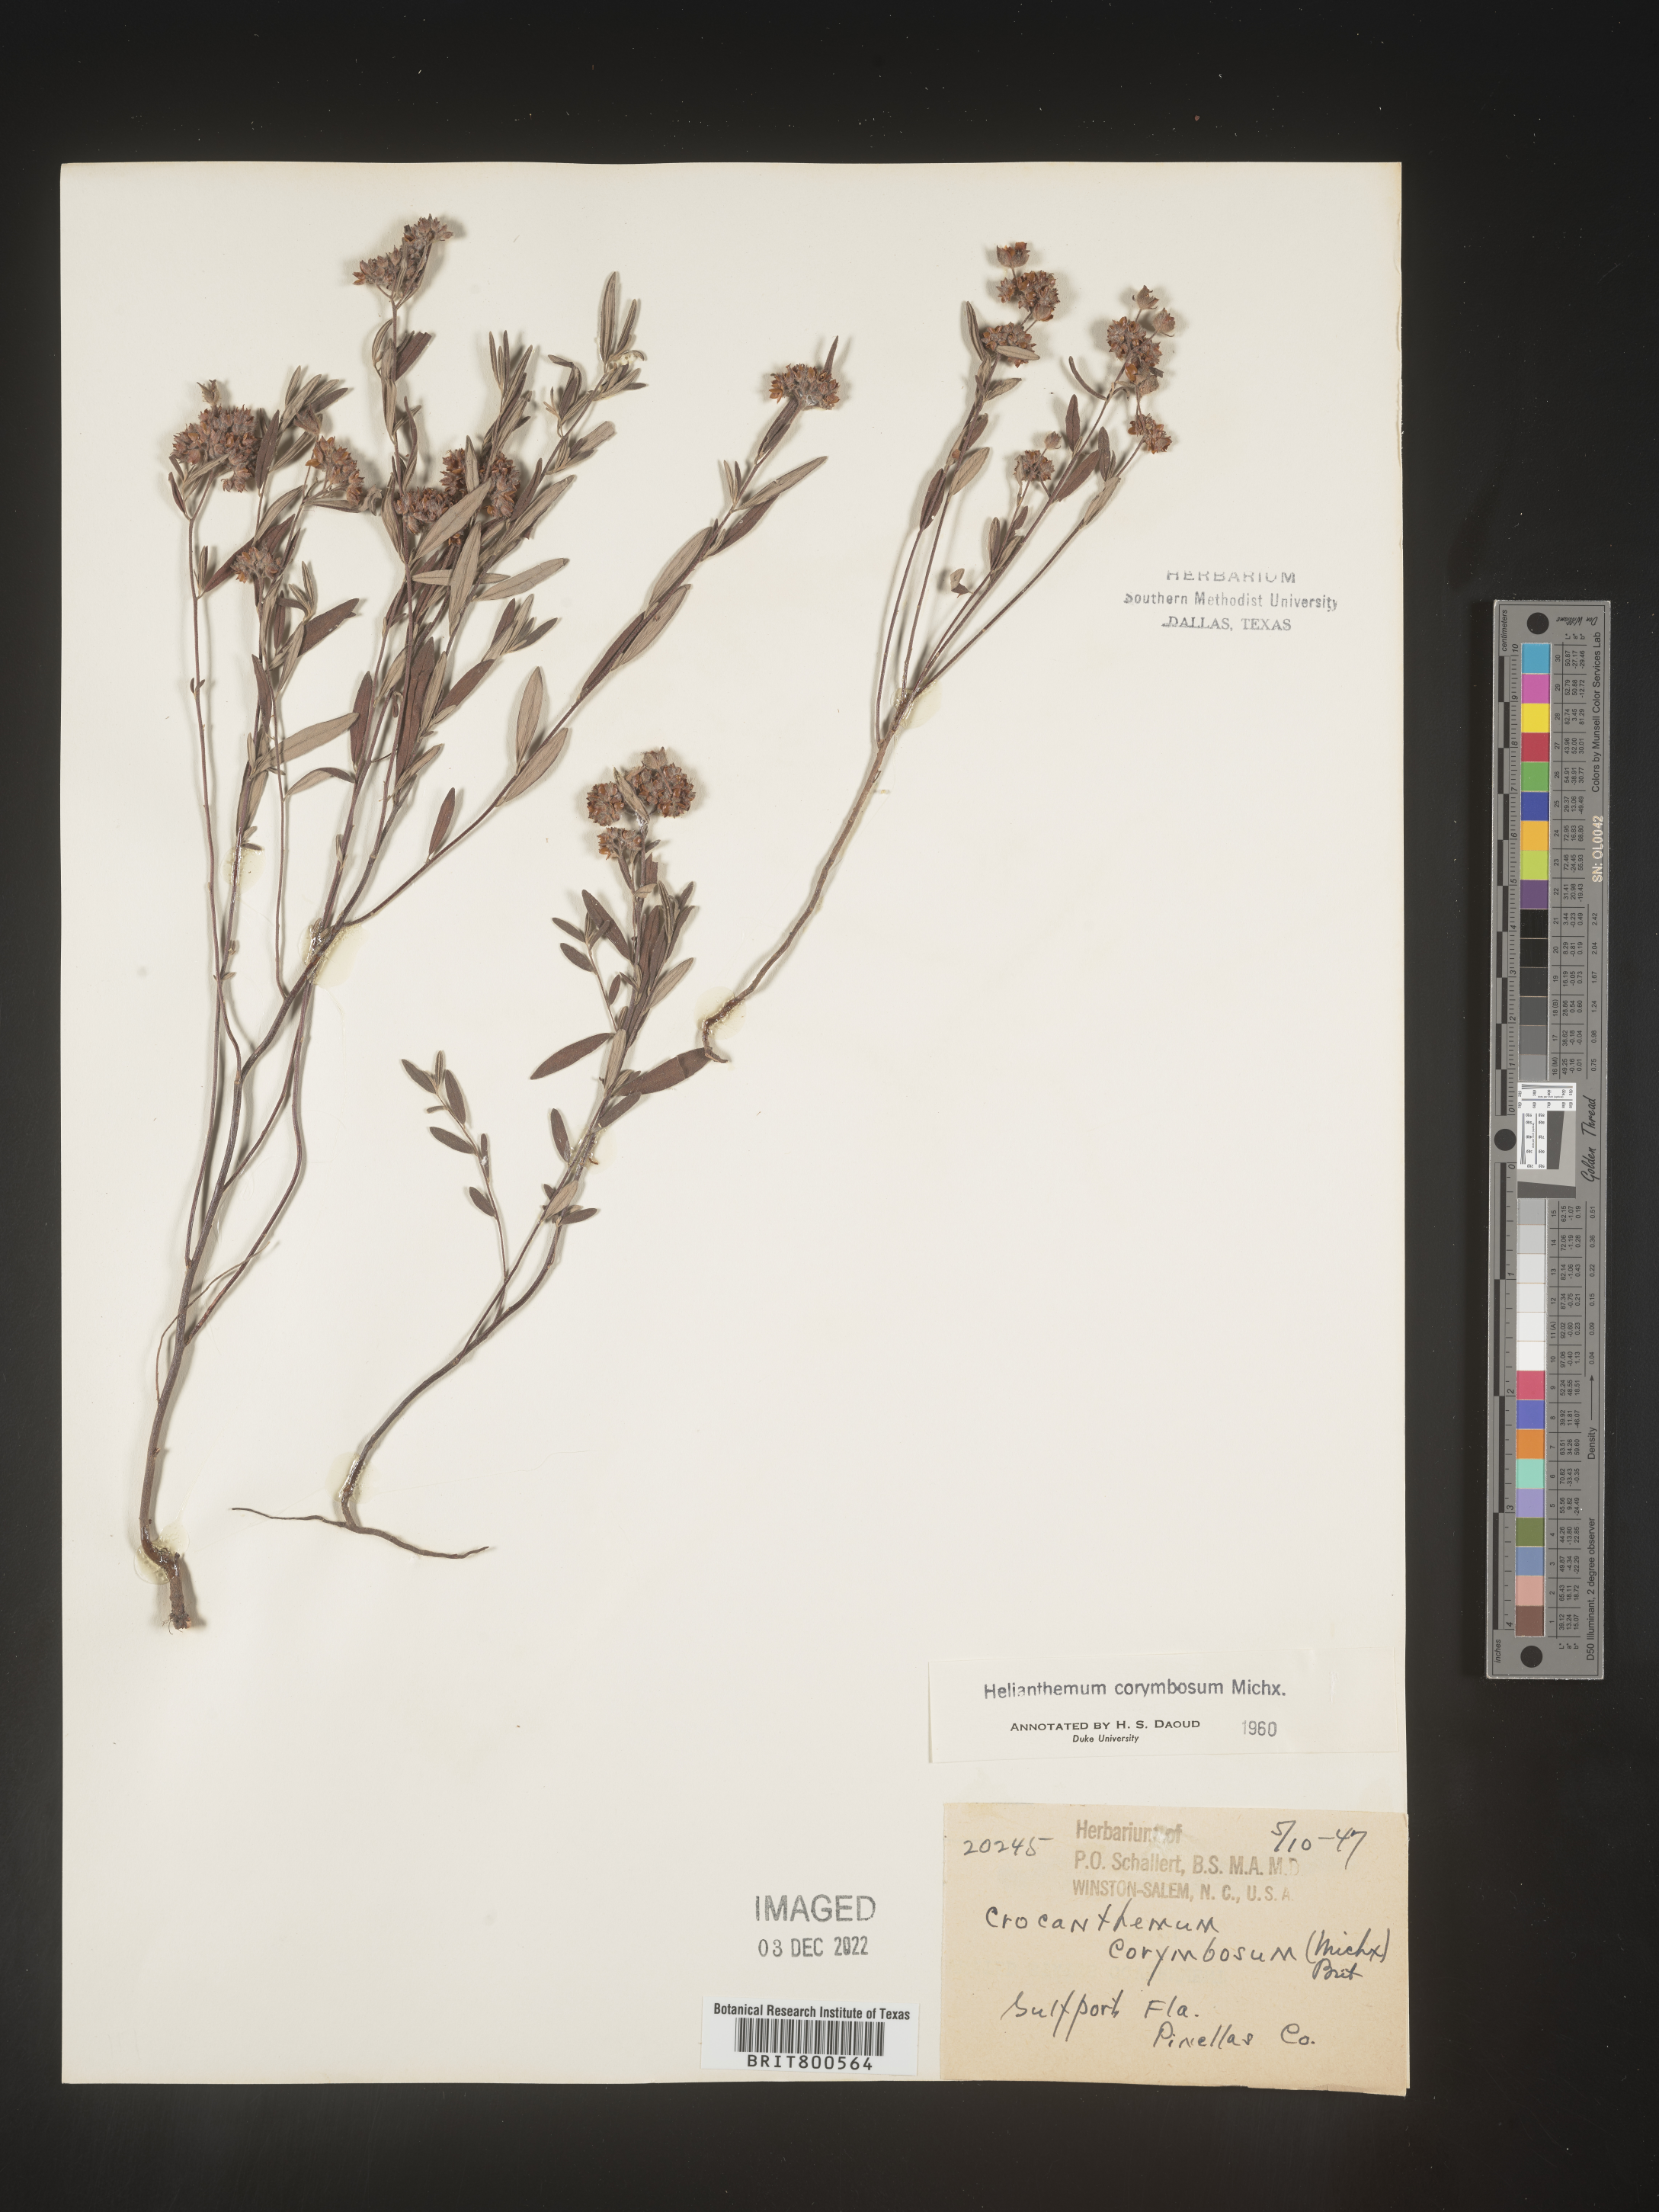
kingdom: Plantae
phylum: Tracheophyta
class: Magnoliopsida
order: Malvales
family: Cistaceae
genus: Crocanthemum
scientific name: Crocanthemum corymbosum
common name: Pinebarren sun-rose
